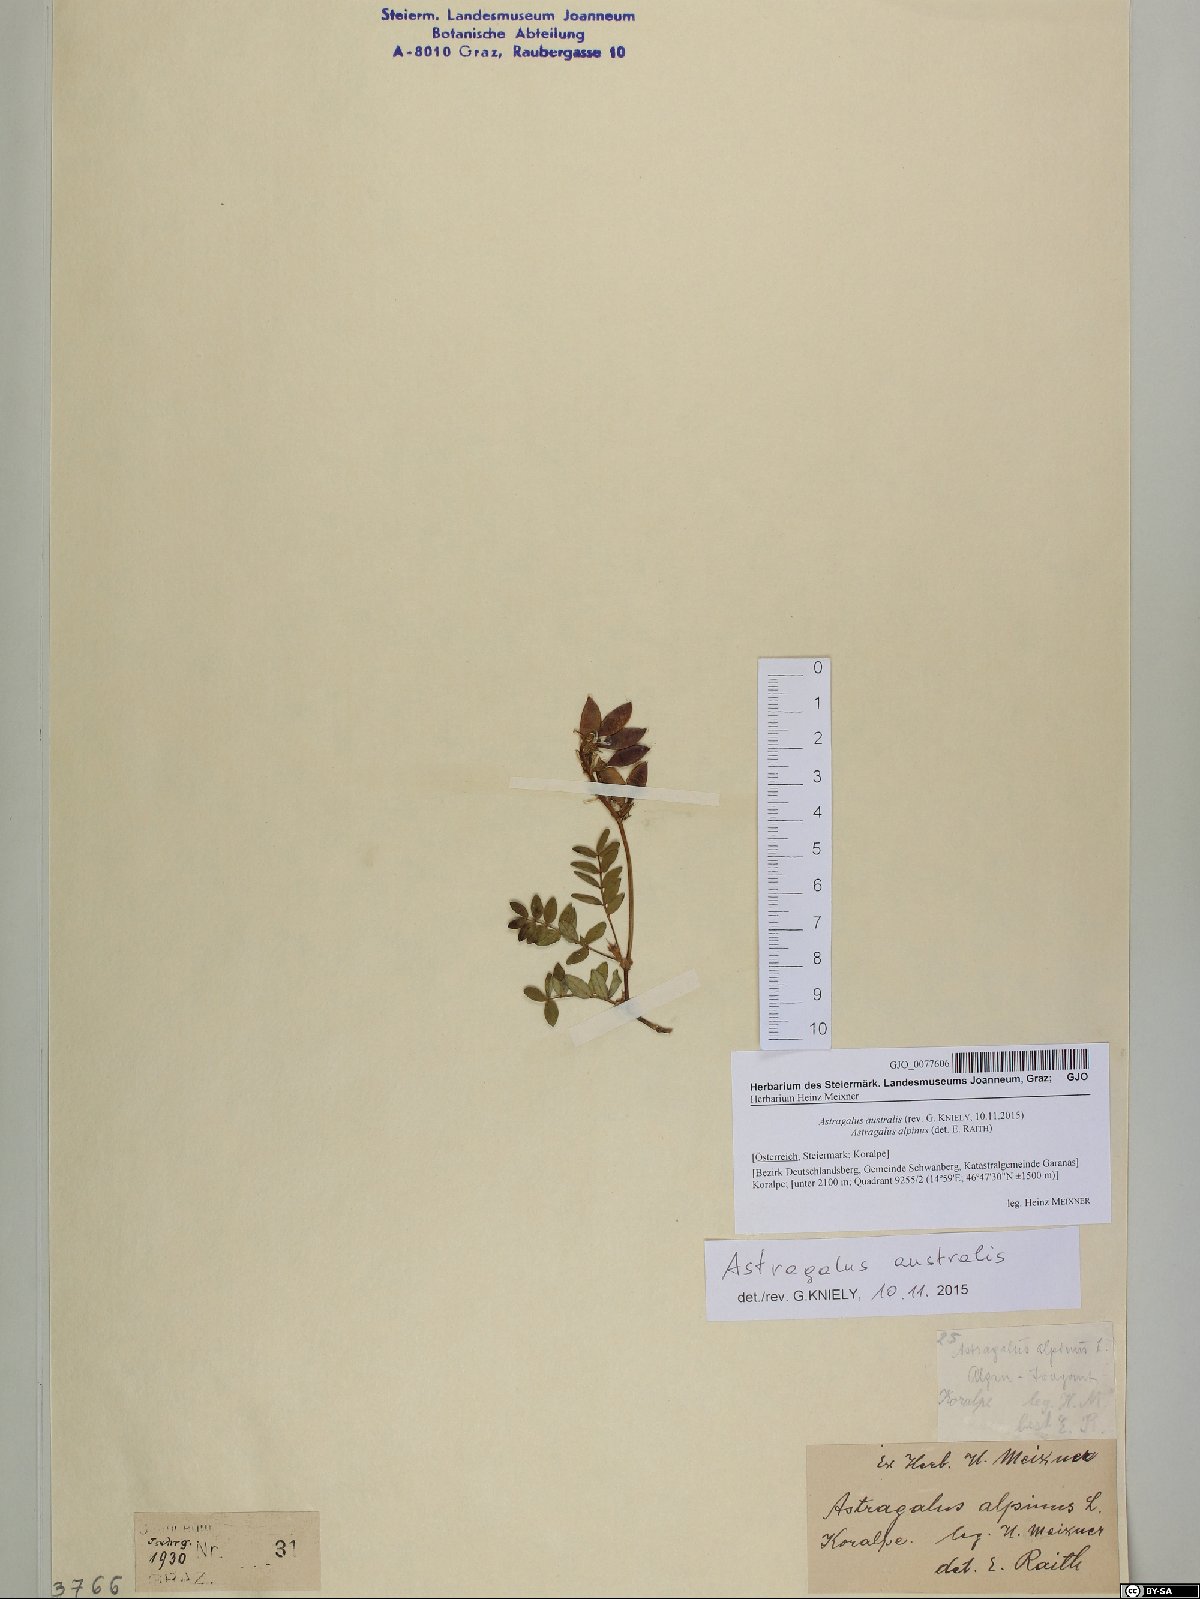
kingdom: Plantae
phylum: Tracheophyta
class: Magnoliopsida
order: Fabales
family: Fabaceae
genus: Astragalus
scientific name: Astragalus australis
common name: Indian milk-vetch
